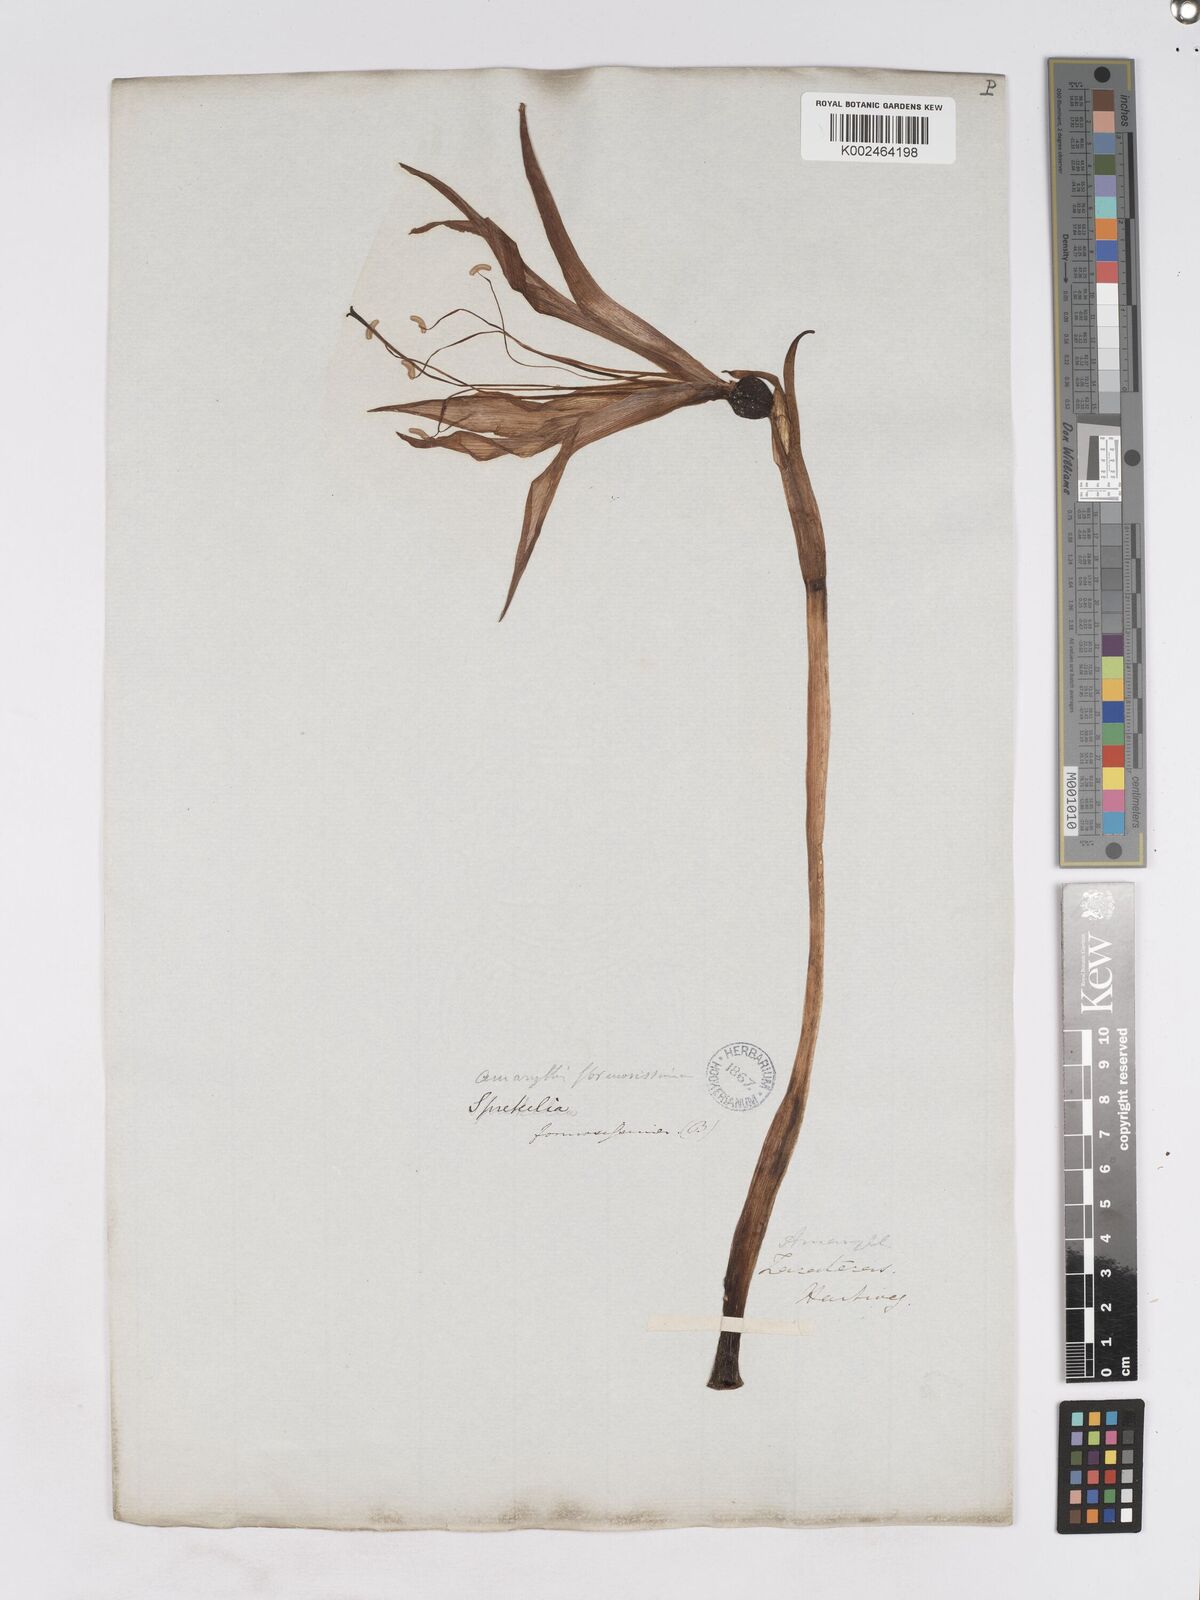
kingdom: Plantae
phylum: Tracheophyta
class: Liliopsida
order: Asparagales
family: Amaryllidaceae
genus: Sprekelia
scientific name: Sprekelia formosissima
